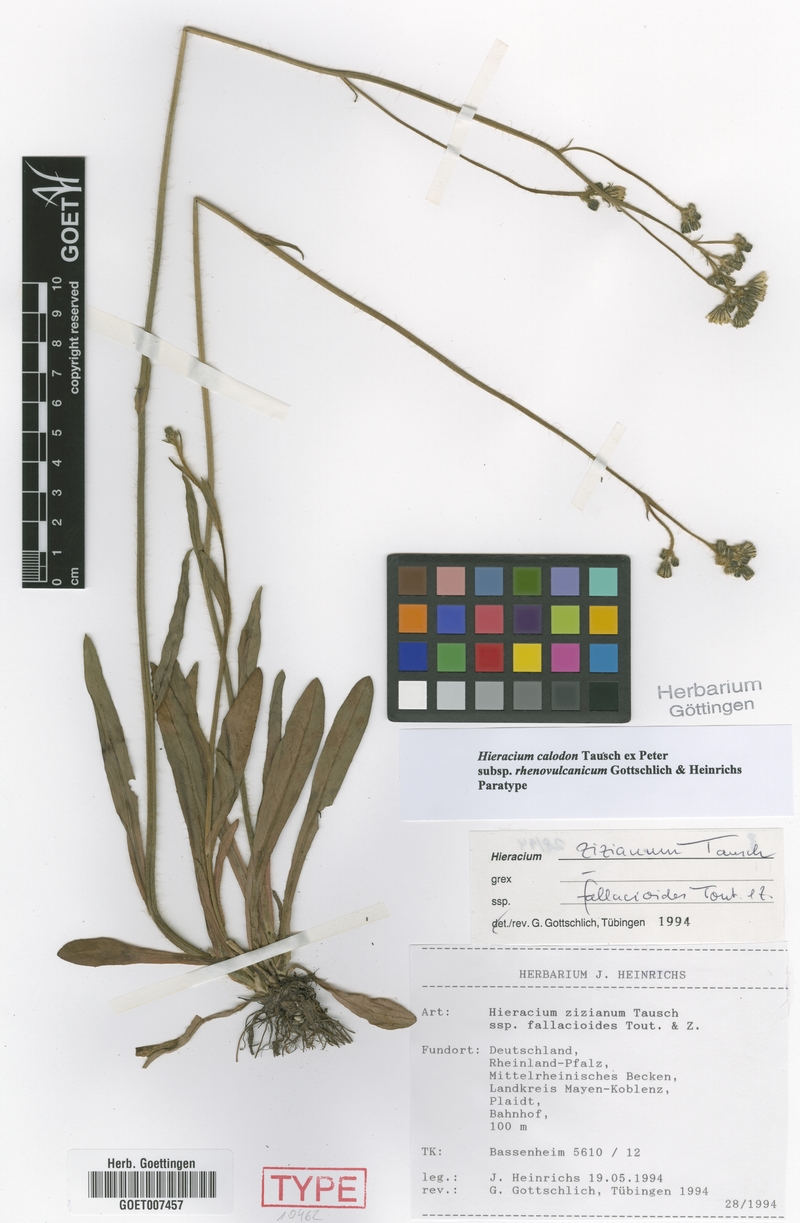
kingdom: Plantae
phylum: Tracheophyta
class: Magnoliopsida
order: Asterales
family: Asteraceae
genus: Pilosella
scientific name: Pilosella calodon
